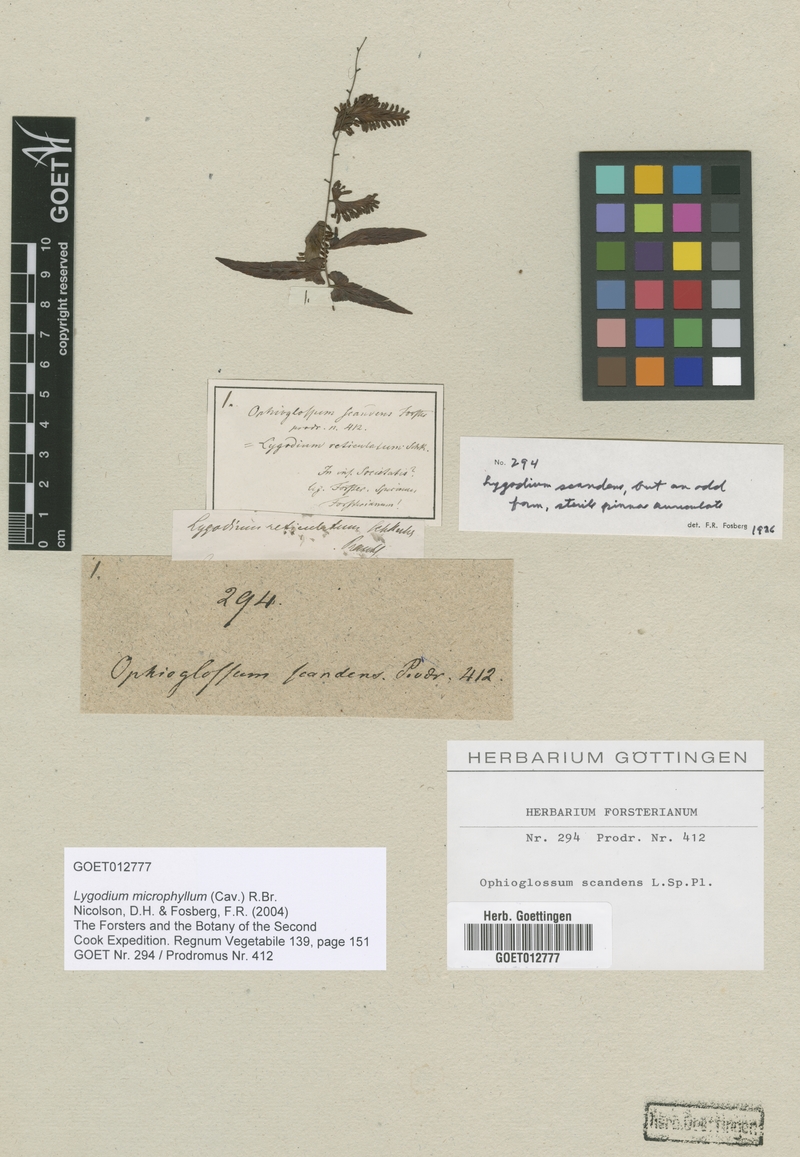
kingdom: Plantae
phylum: Tracheophyta
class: Polypodiopsida
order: Schizaeales
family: Lygodiaceae
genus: Lygodium
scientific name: Lygodium microphyllum
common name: Small-leaf climbing fern
